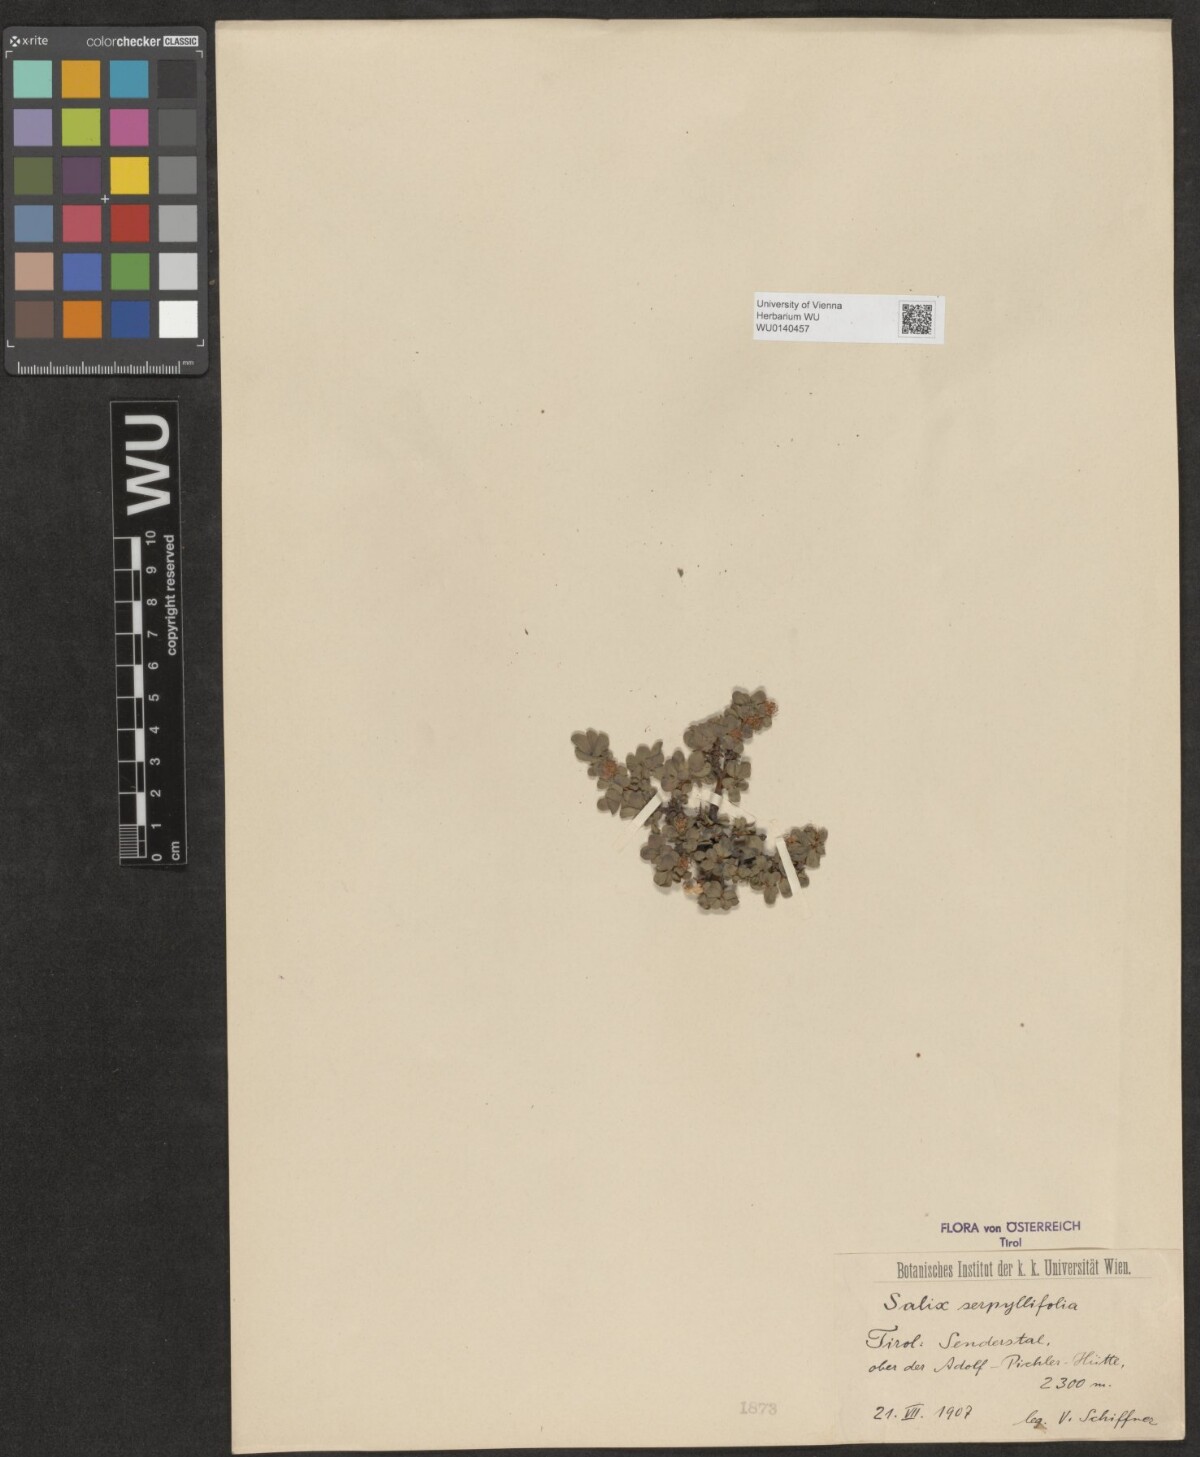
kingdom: Plantae
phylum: Tracheophyta
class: Magnoliopsida
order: Malpighiales
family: Salicaceae
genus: Salix
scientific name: Salix serpillifolia
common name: Thyme-leaf willow
